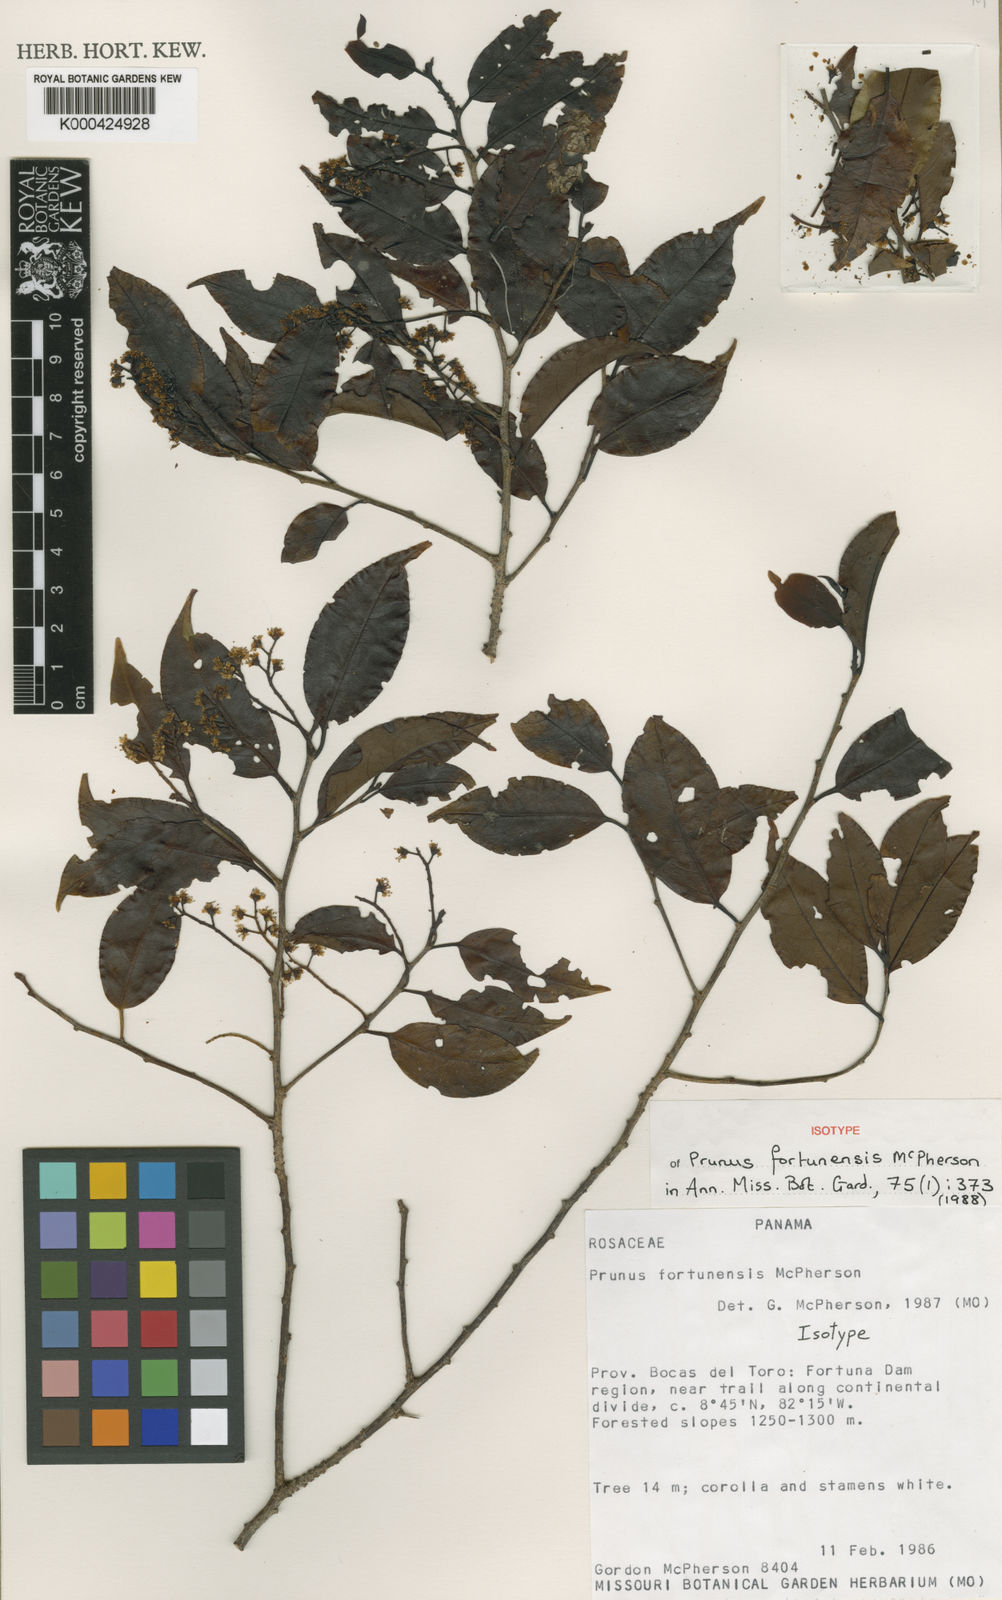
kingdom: Plantae
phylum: Tracheophyta
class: Magnoliopsida
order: Rosales
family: Rosaceae
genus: Prunus
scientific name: Prunus fortunensis
